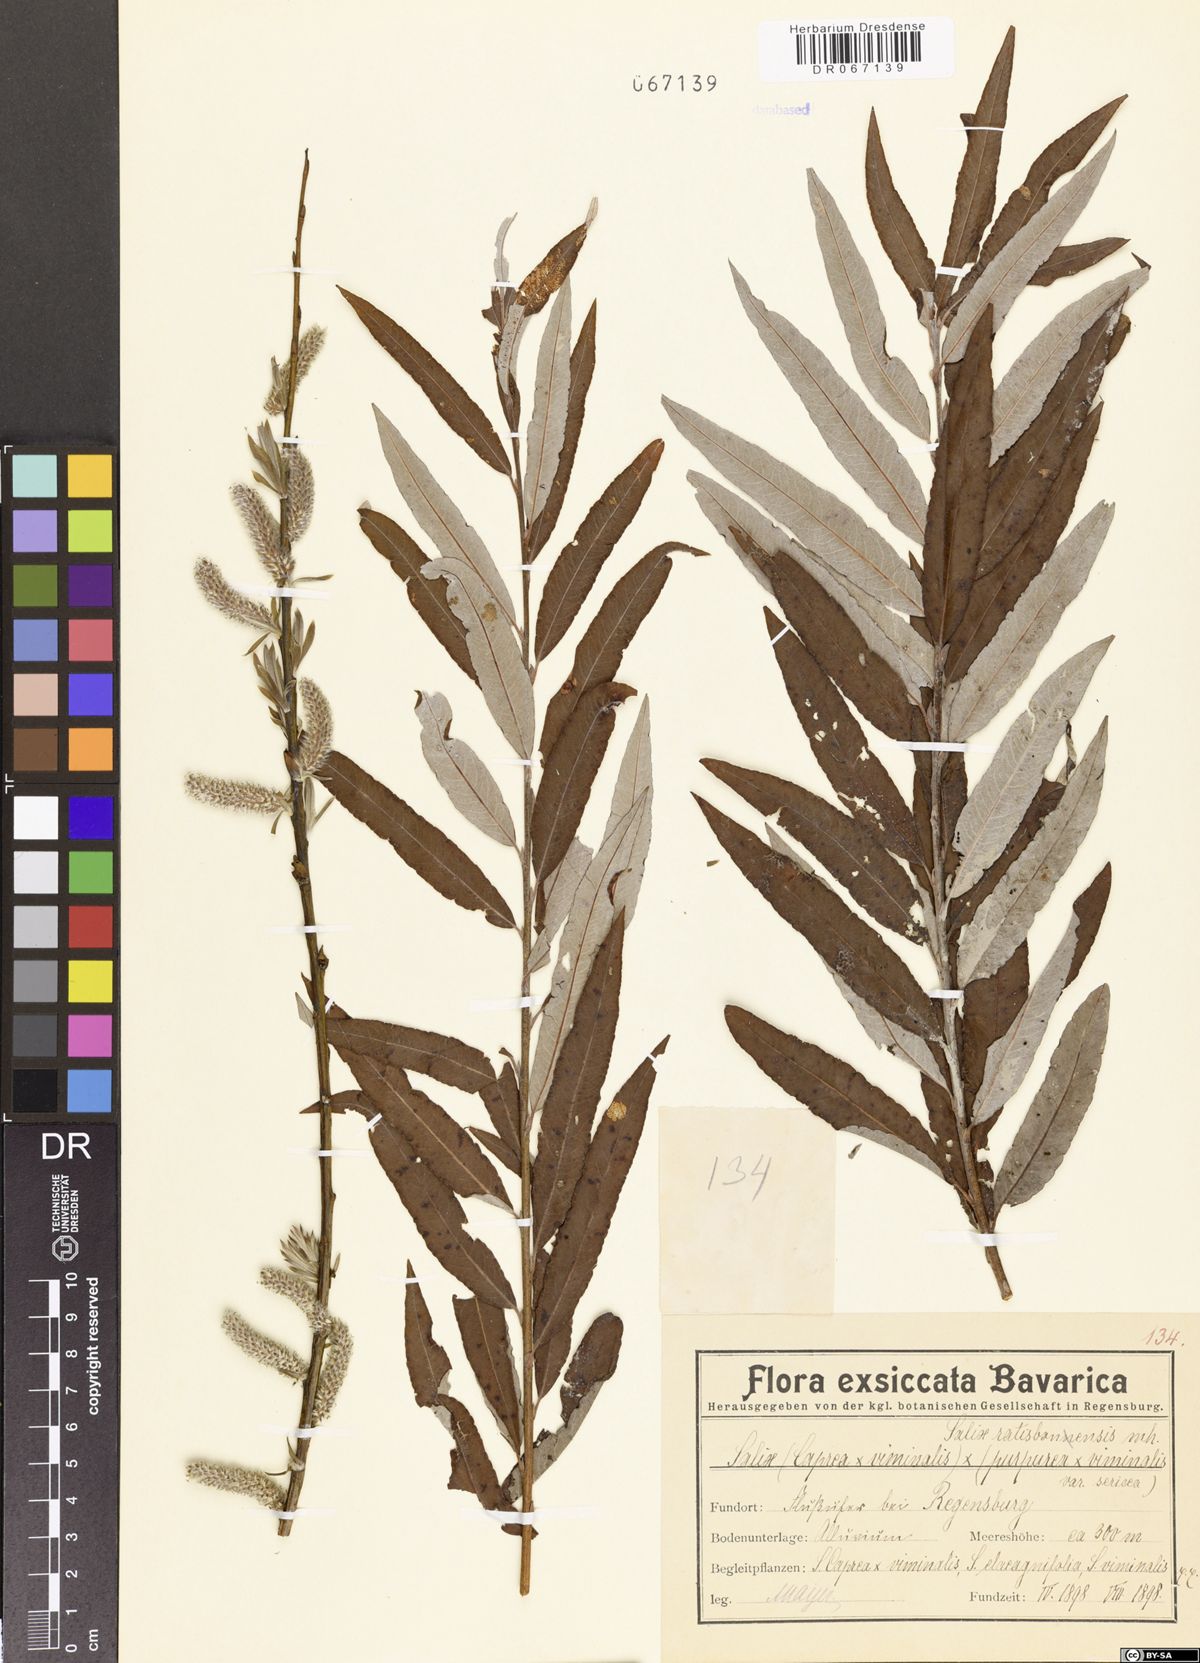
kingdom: Plantae
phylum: Tracheophyta
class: Magnoliopsida
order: Malpighiales
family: Salicaceae
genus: Salix
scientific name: Salix
